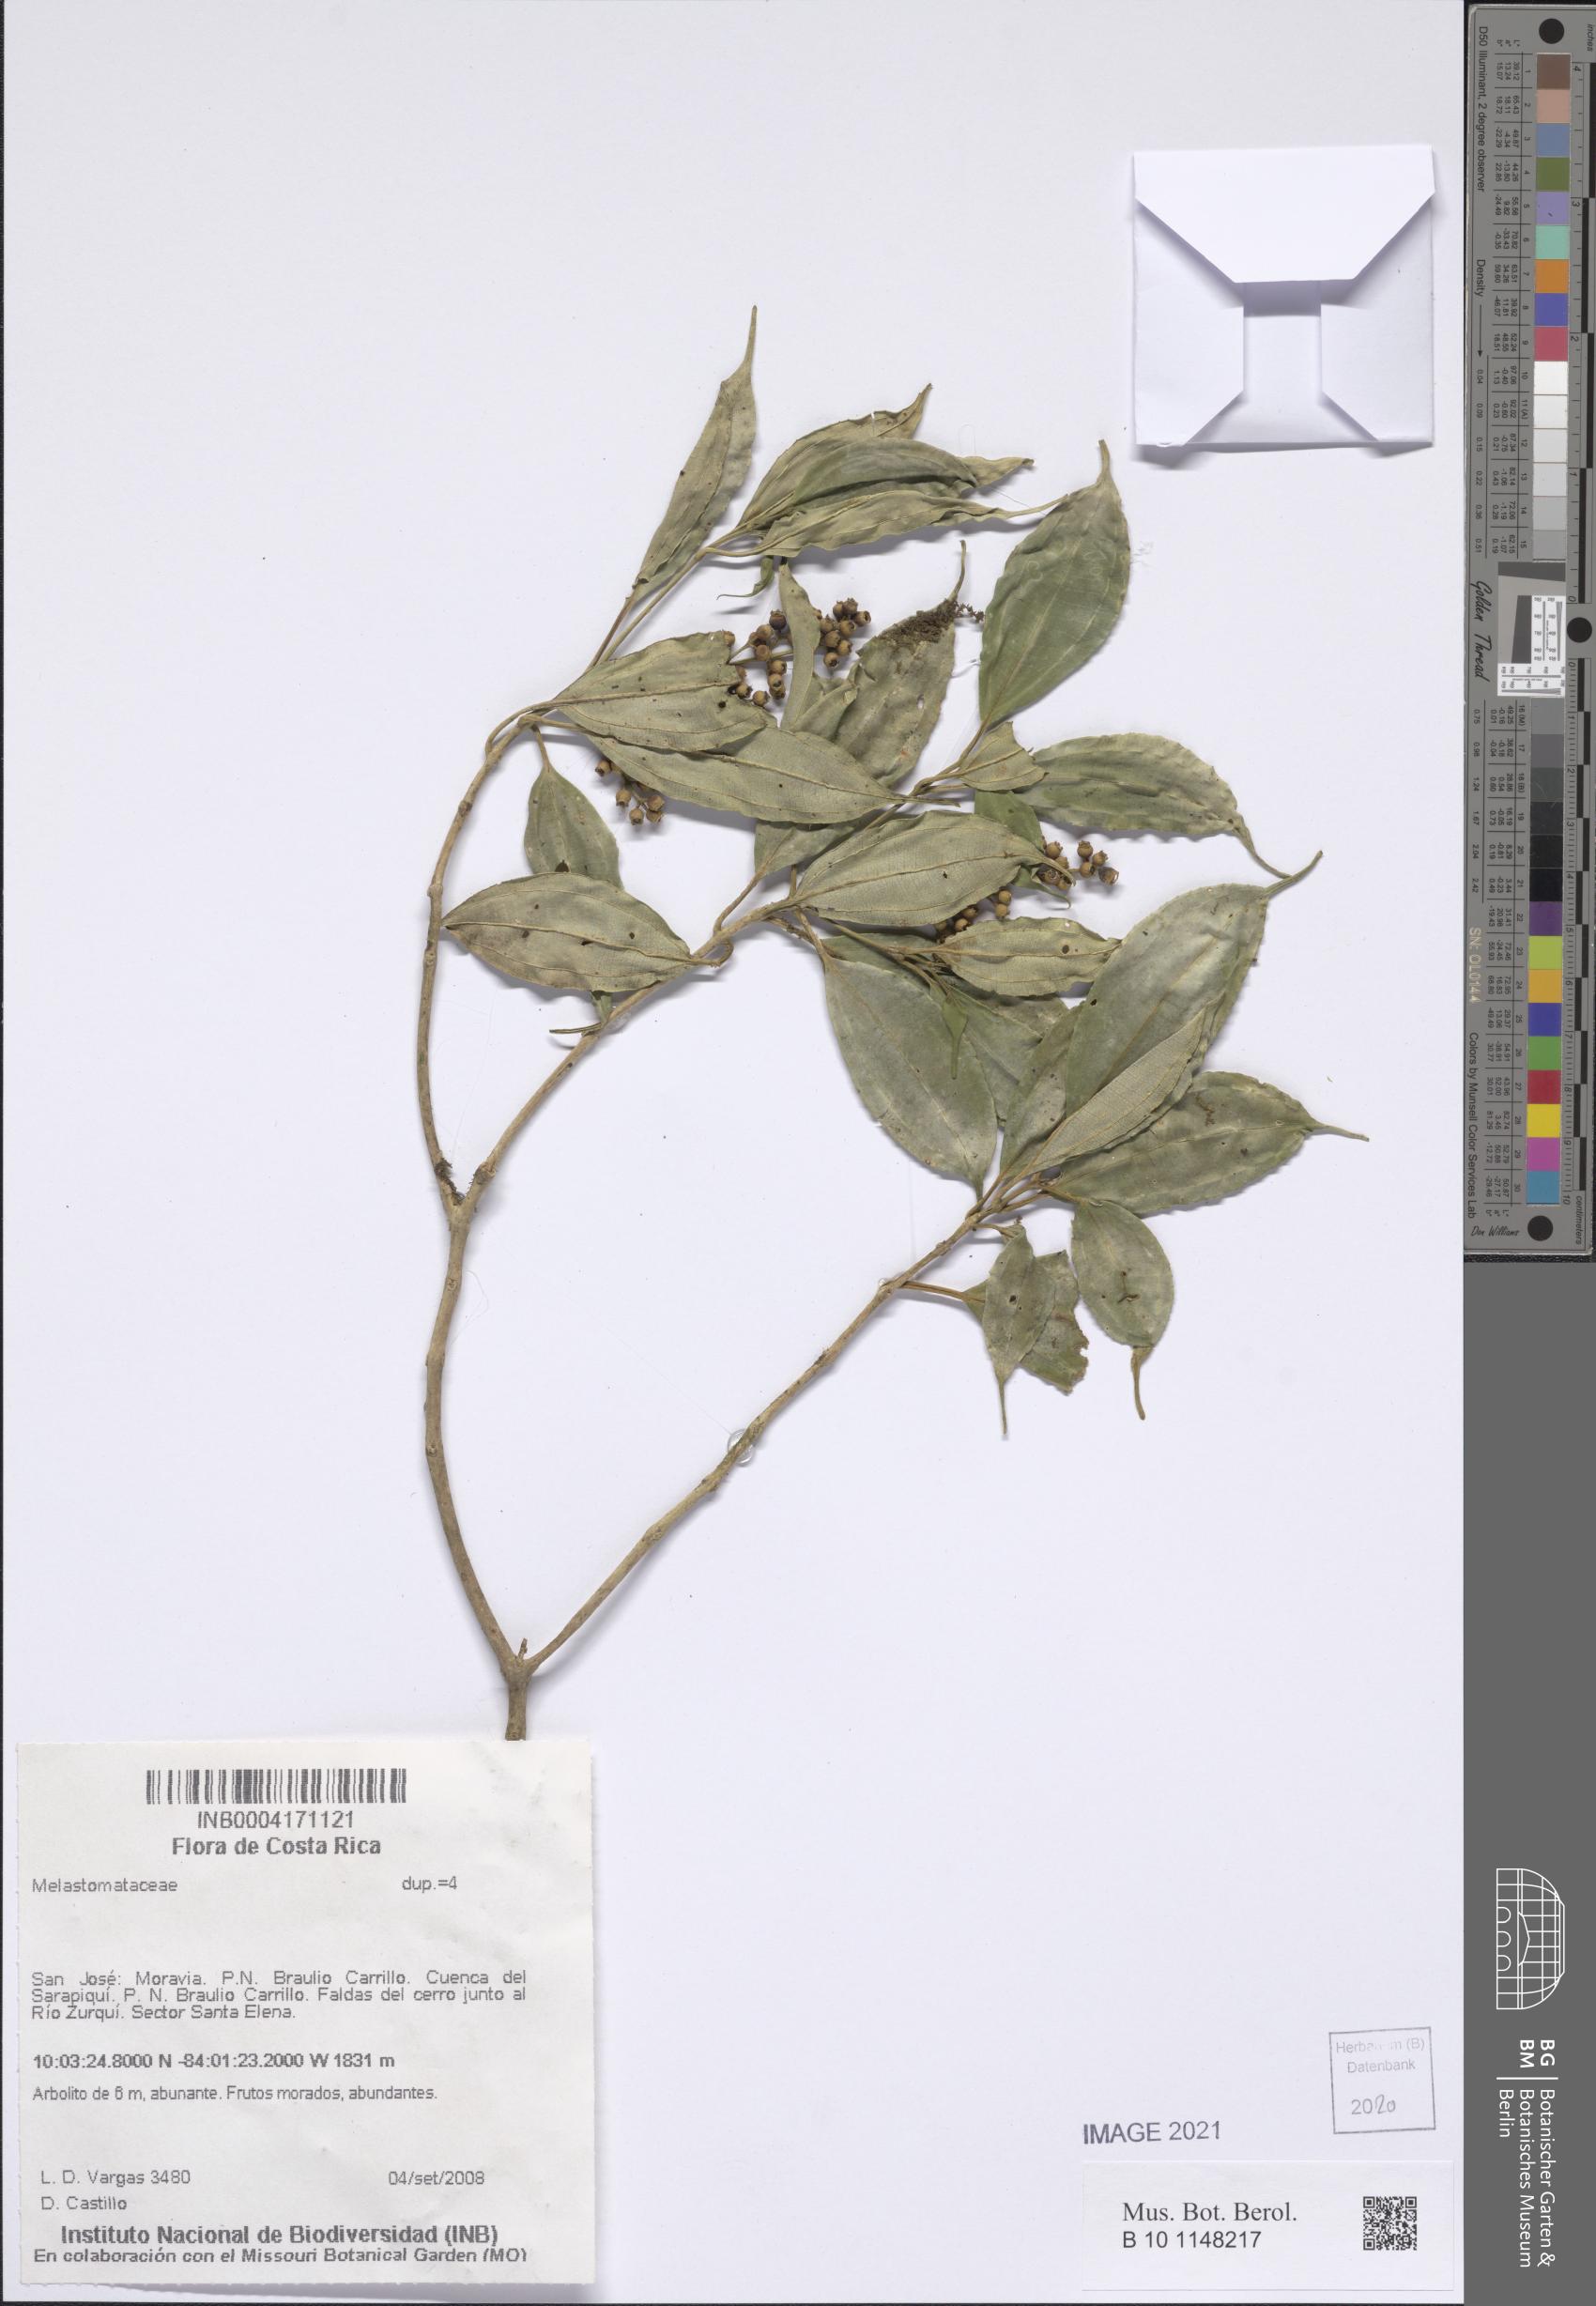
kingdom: Plantae
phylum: Tracheophyta
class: Magnoliopsida
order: Myrtales
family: Melastomataceae
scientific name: Melastomataceae
